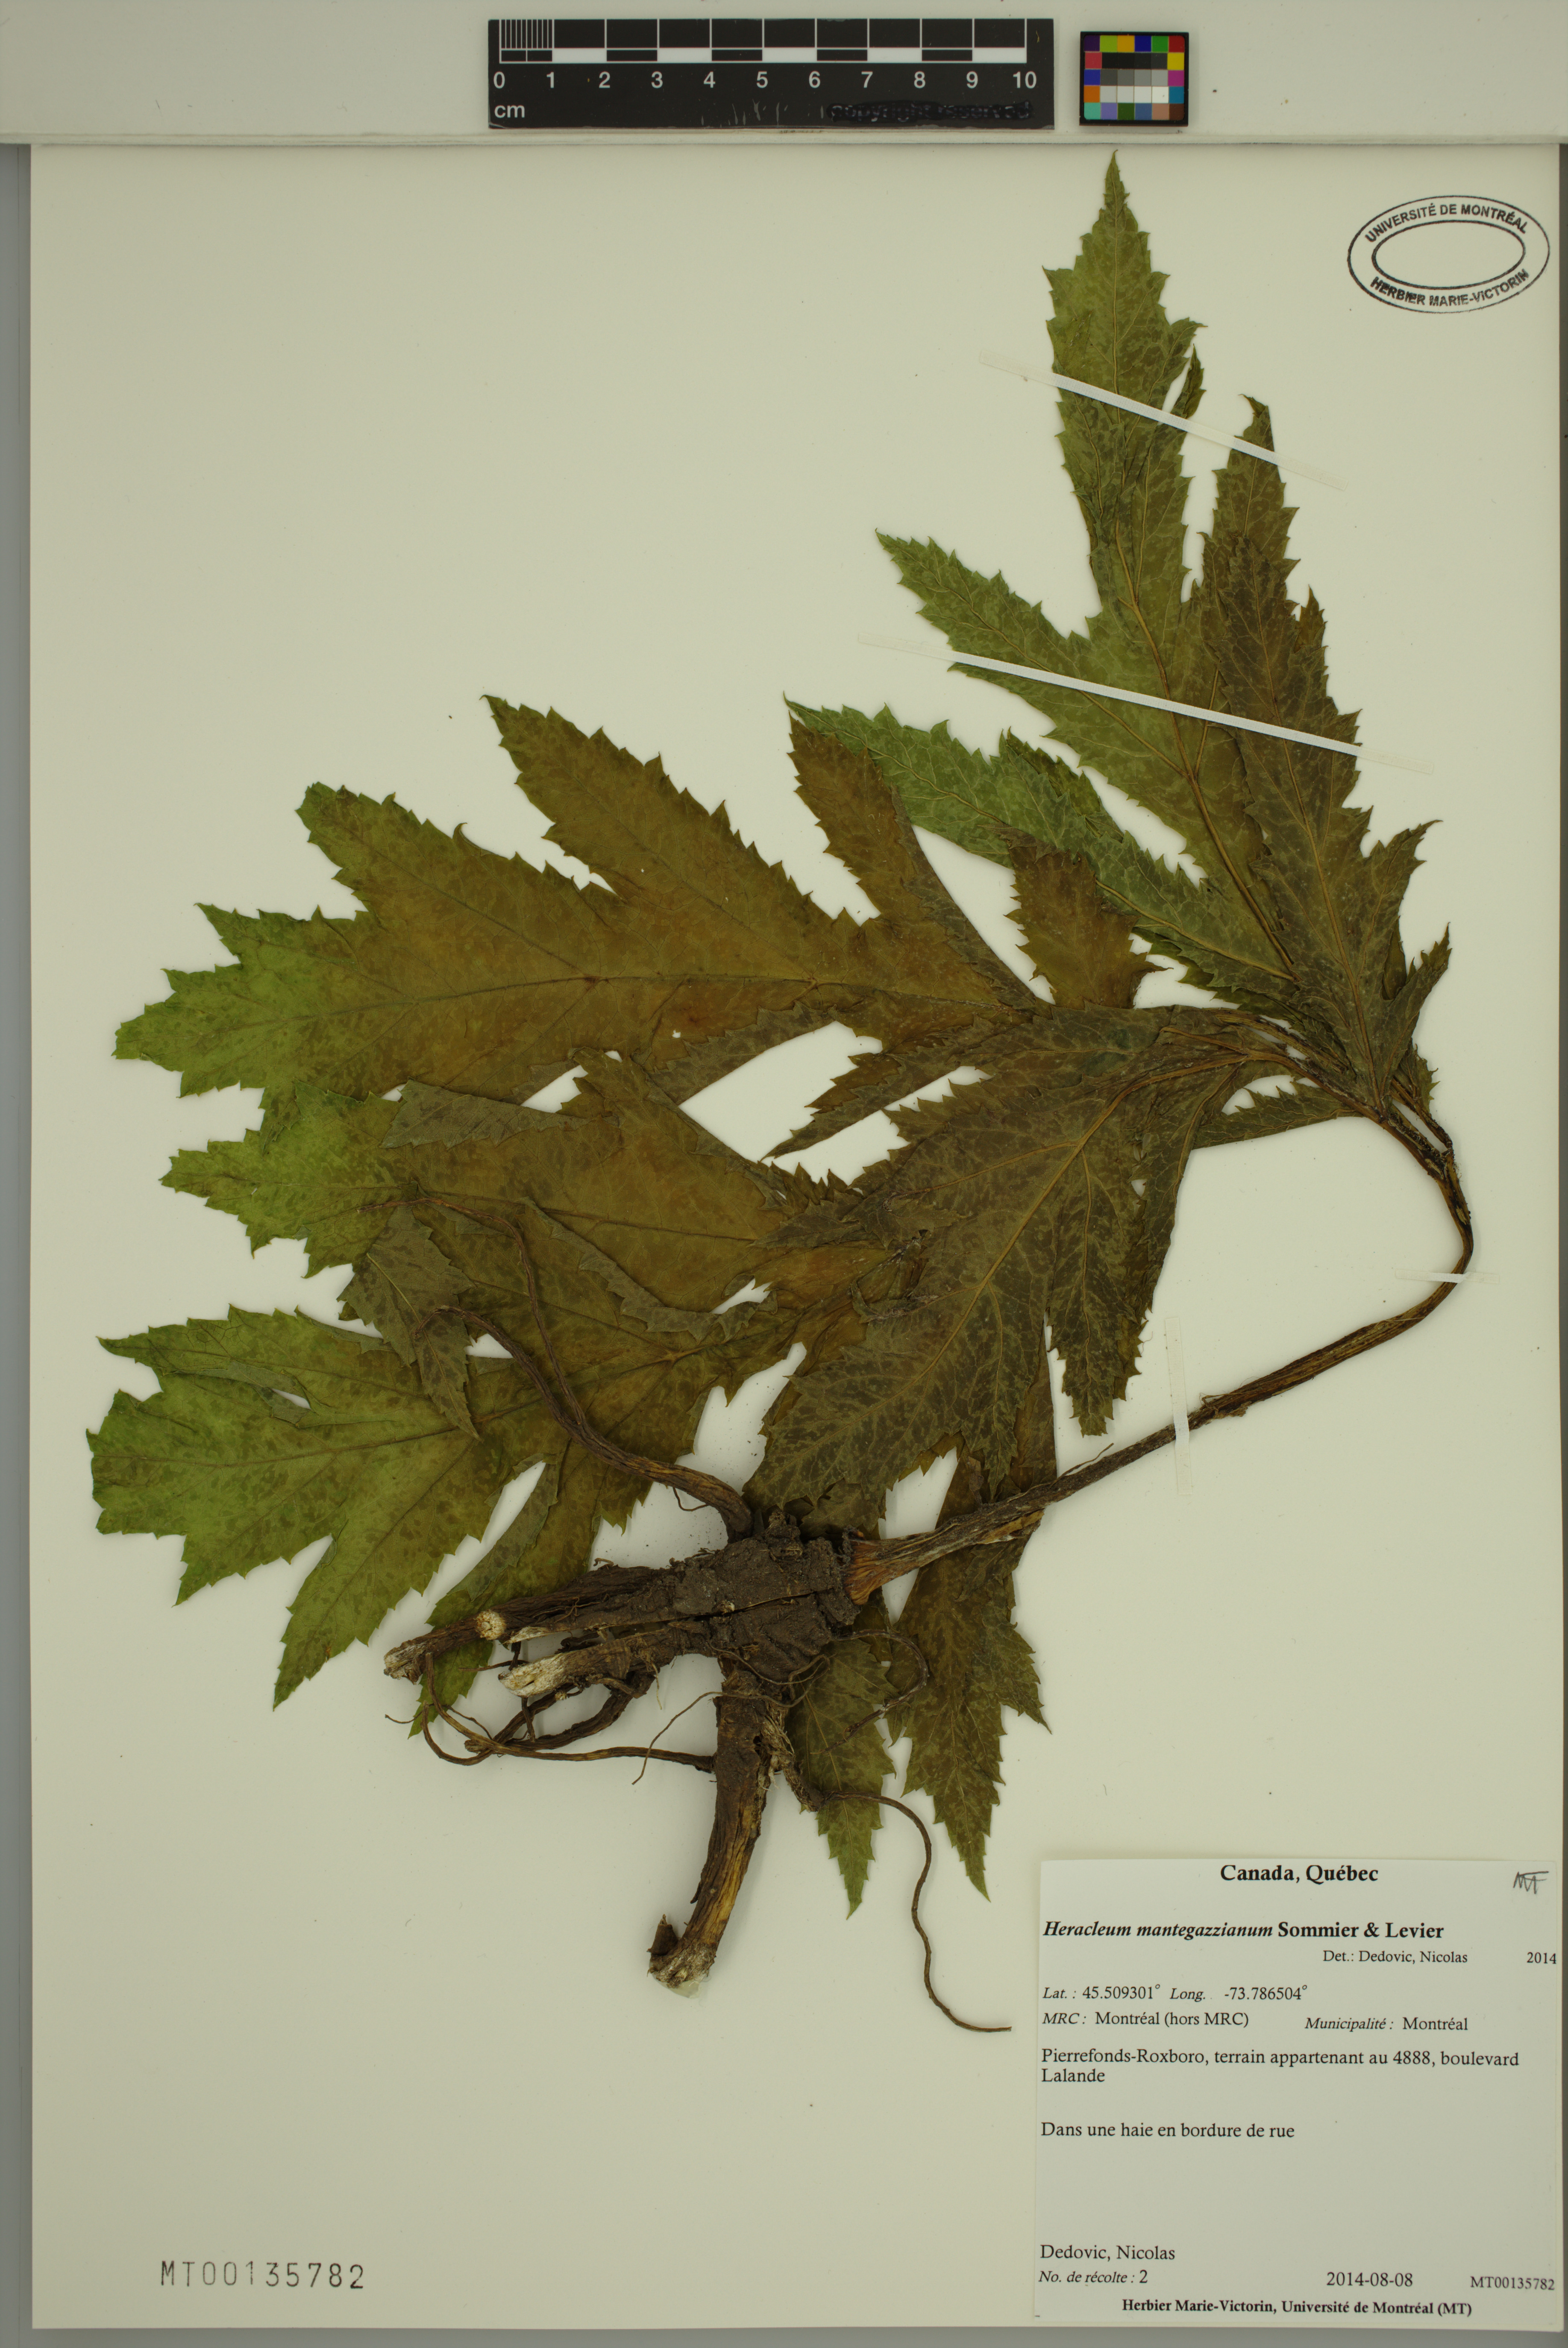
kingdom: Plantae
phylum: Tracheophyta
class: Magnoliopsida
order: Apiales
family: Apiaceae
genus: Heracleum
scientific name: Heracleum mantegazzianum
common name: Giant hogweed
